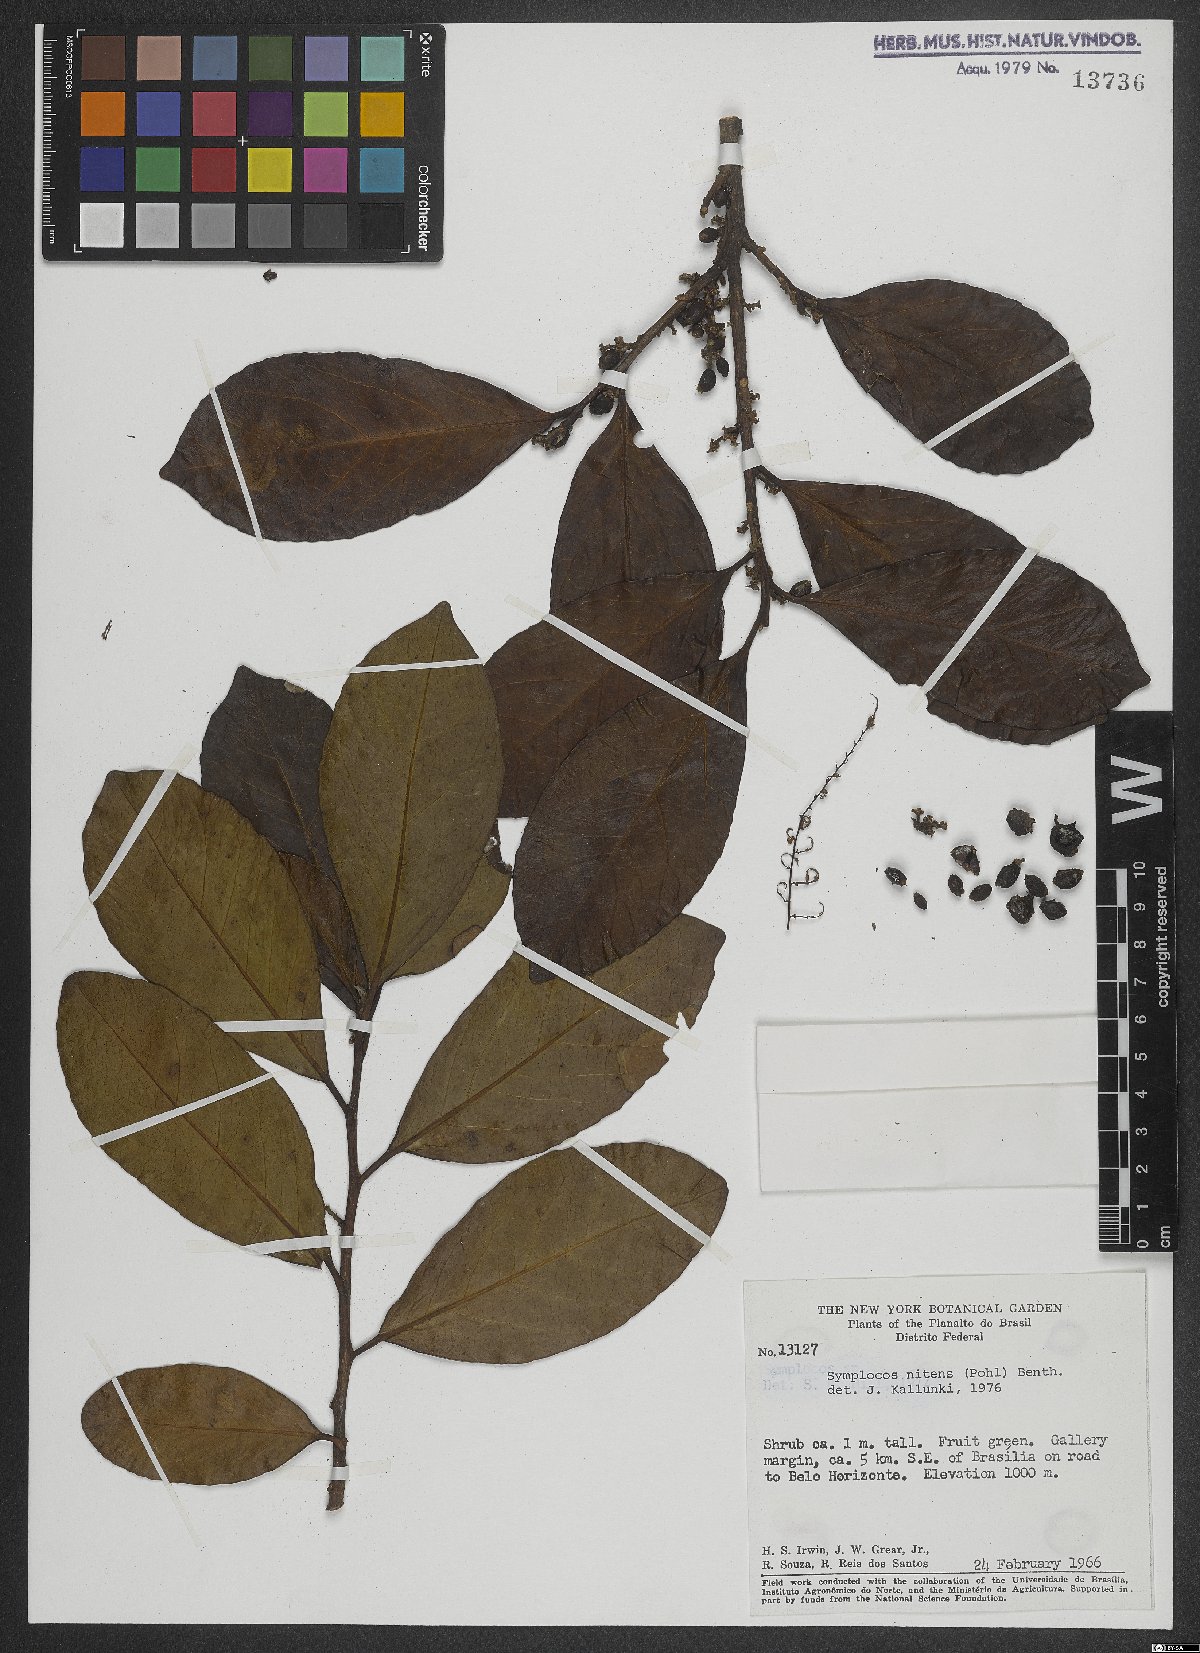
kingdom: Plantae
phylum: Tracheophyta
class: Magnoliopsida
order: Ericales
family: Symplocaceae
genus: Symplocos
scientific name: Symplocos nitens
